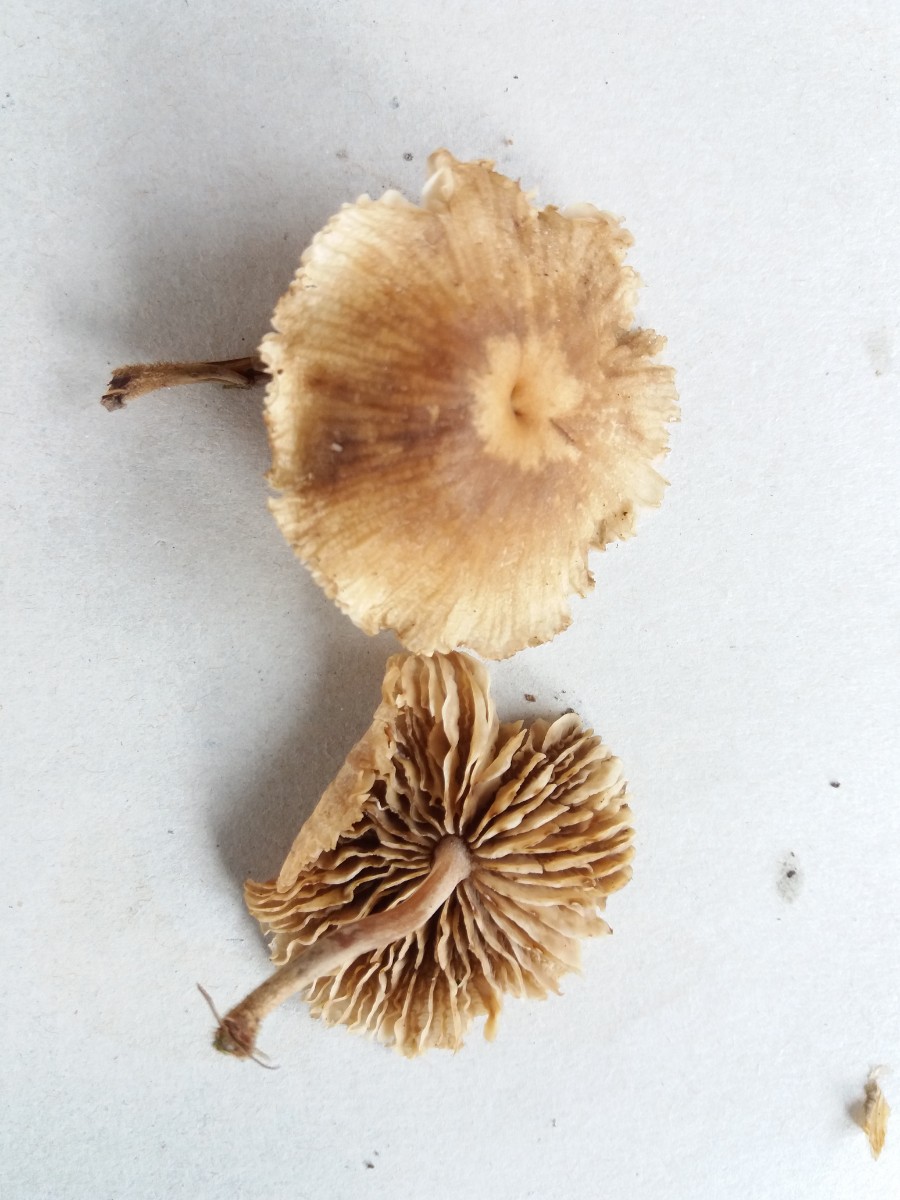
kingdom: Fungi
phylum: Basidiomycota
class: Agaricomycetes
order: Agaricales
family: Omphalotaceae
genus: Gymnopus
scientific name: Gymnopus inodorus
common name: lugtløs fladhat
